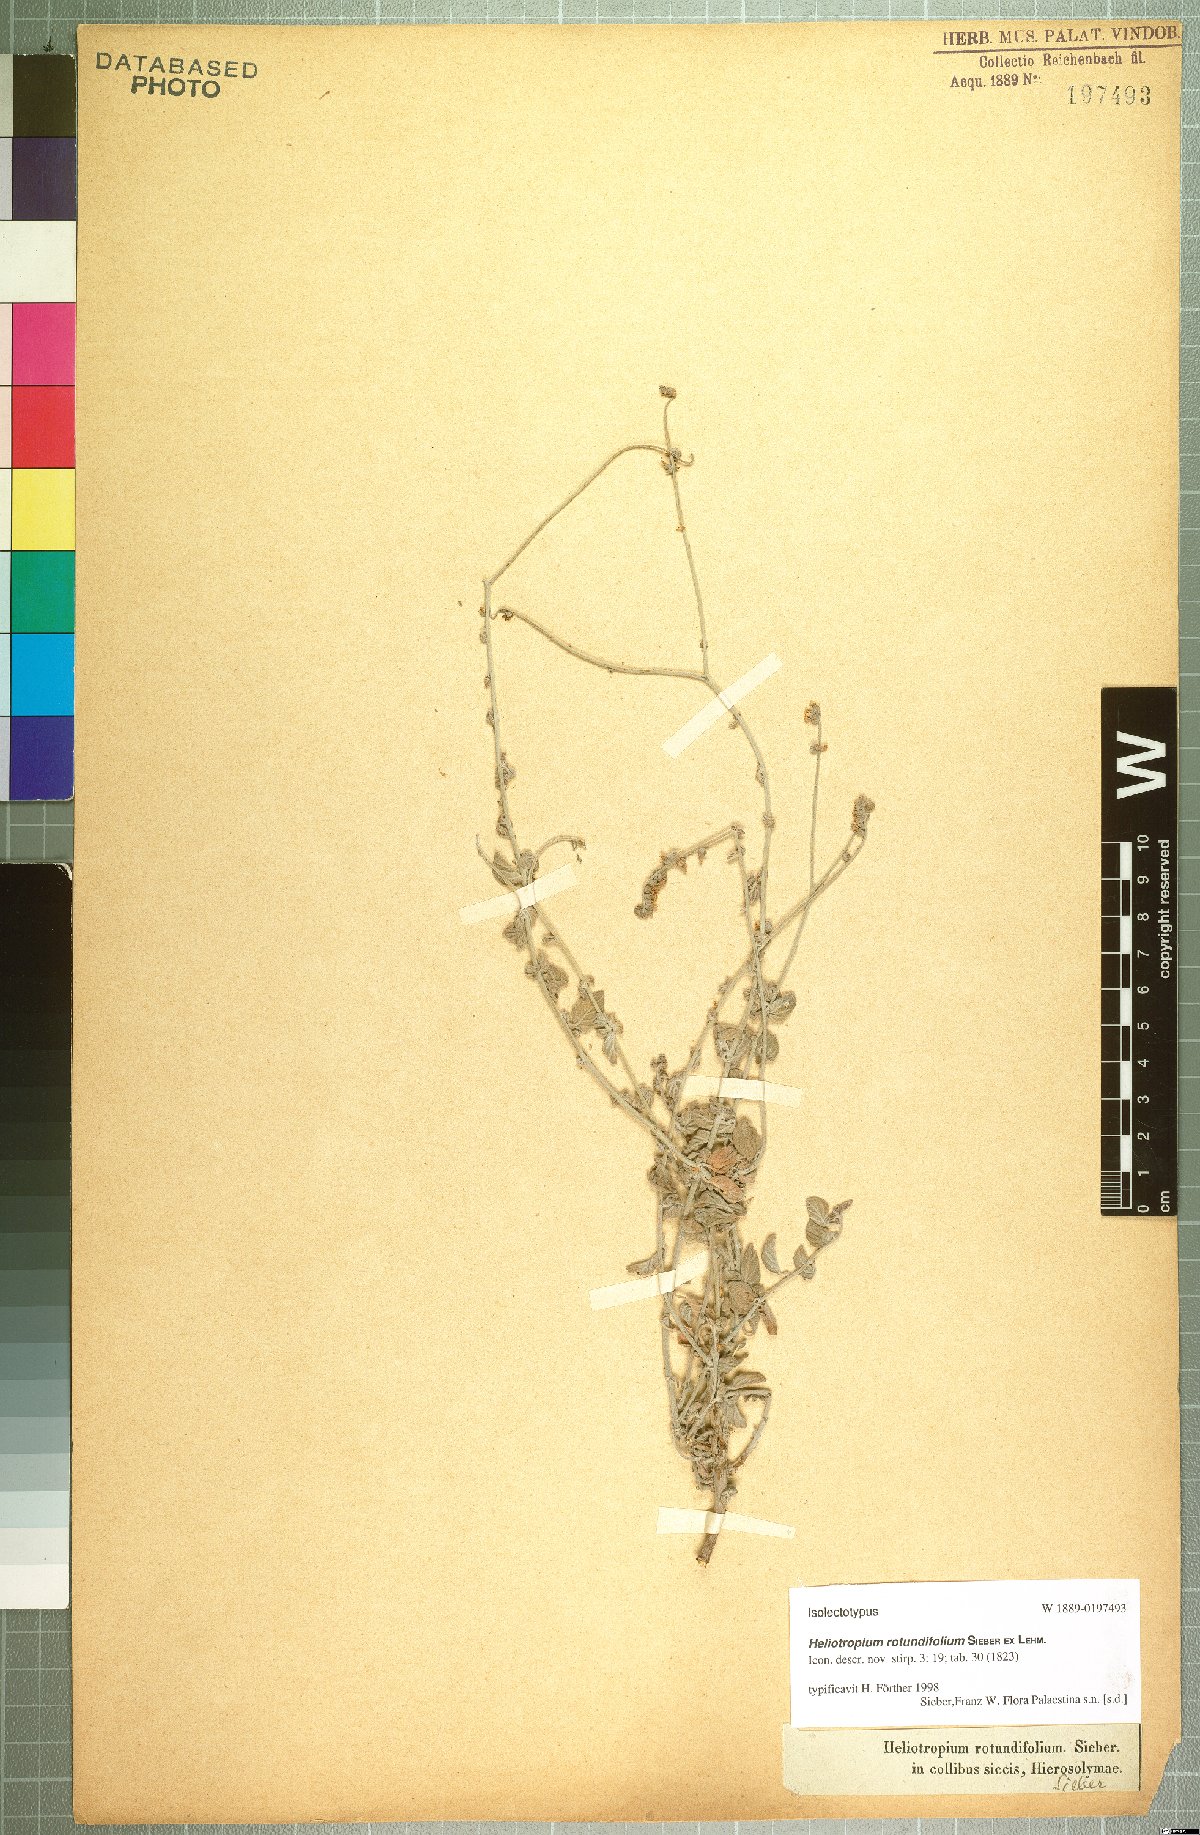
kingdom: Plantae
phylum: Tracheophyta
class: Magnoliopsida
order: Boraginales
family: Heliotropiaceae
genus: Heliotropium
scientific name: Heliotropium rotundifolium
